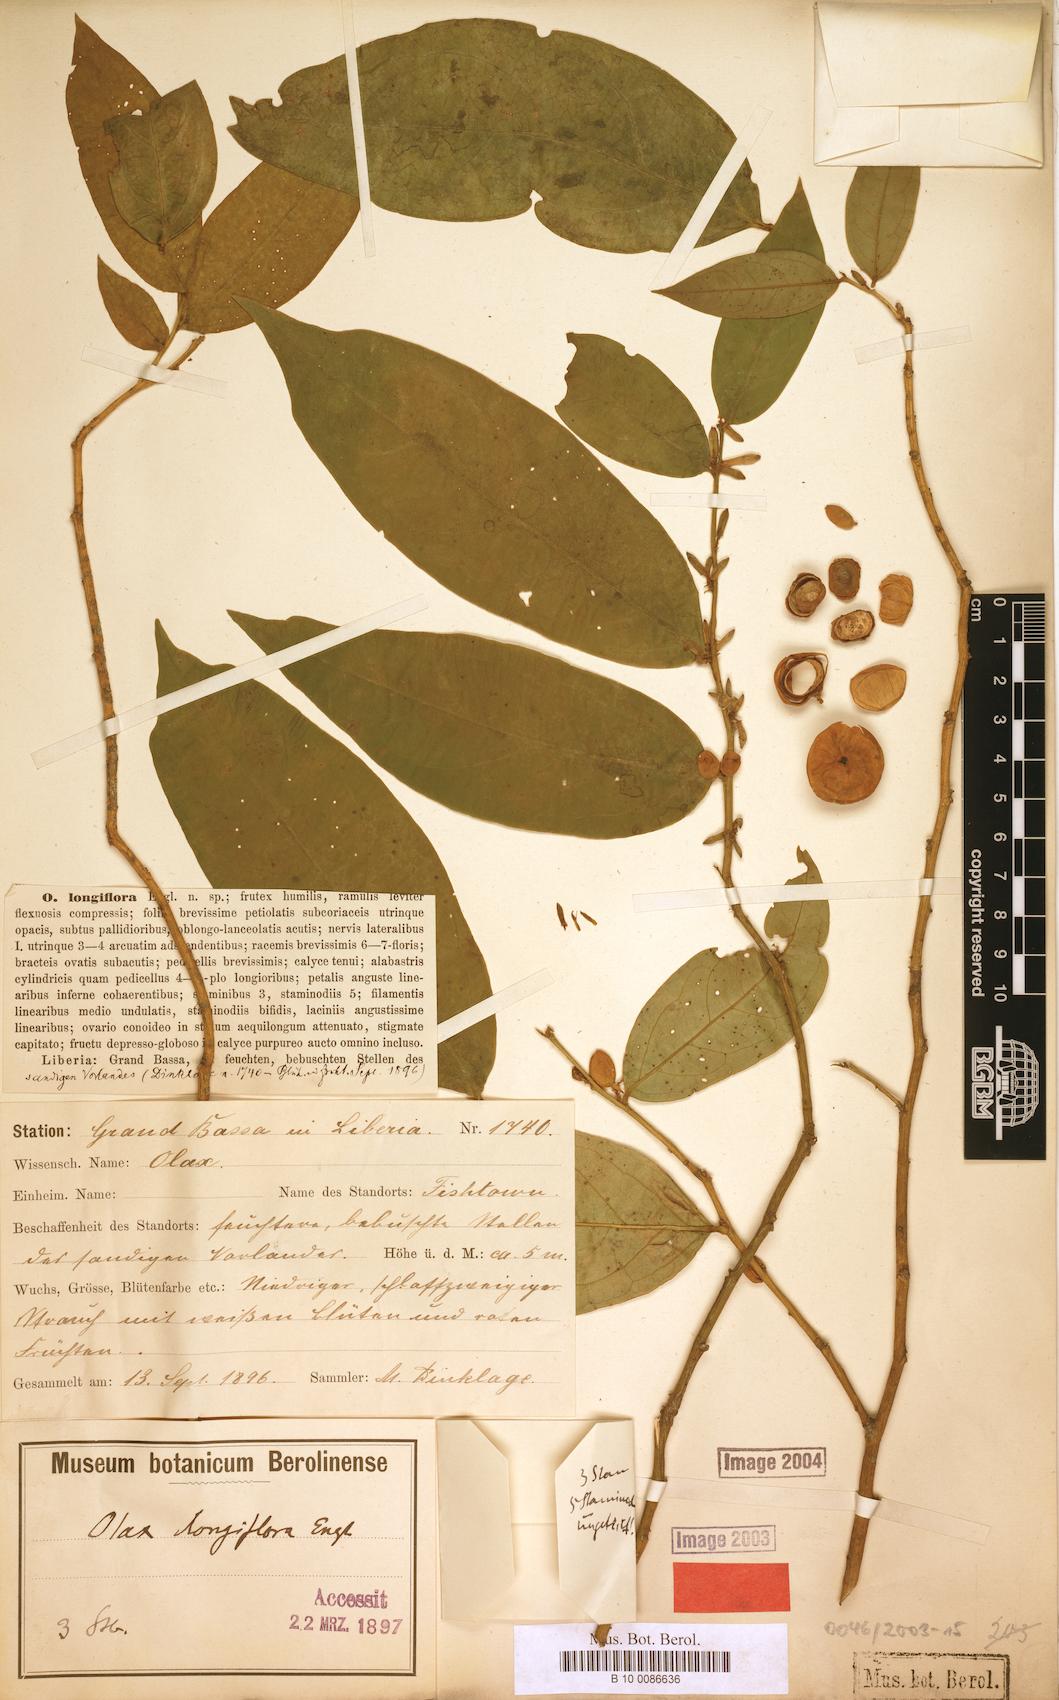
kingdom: Plantae
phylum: Tracheophyta
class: Magnoliopsida
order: Santalales
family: Olacaceae
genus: Olax
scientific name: Olax mannii
